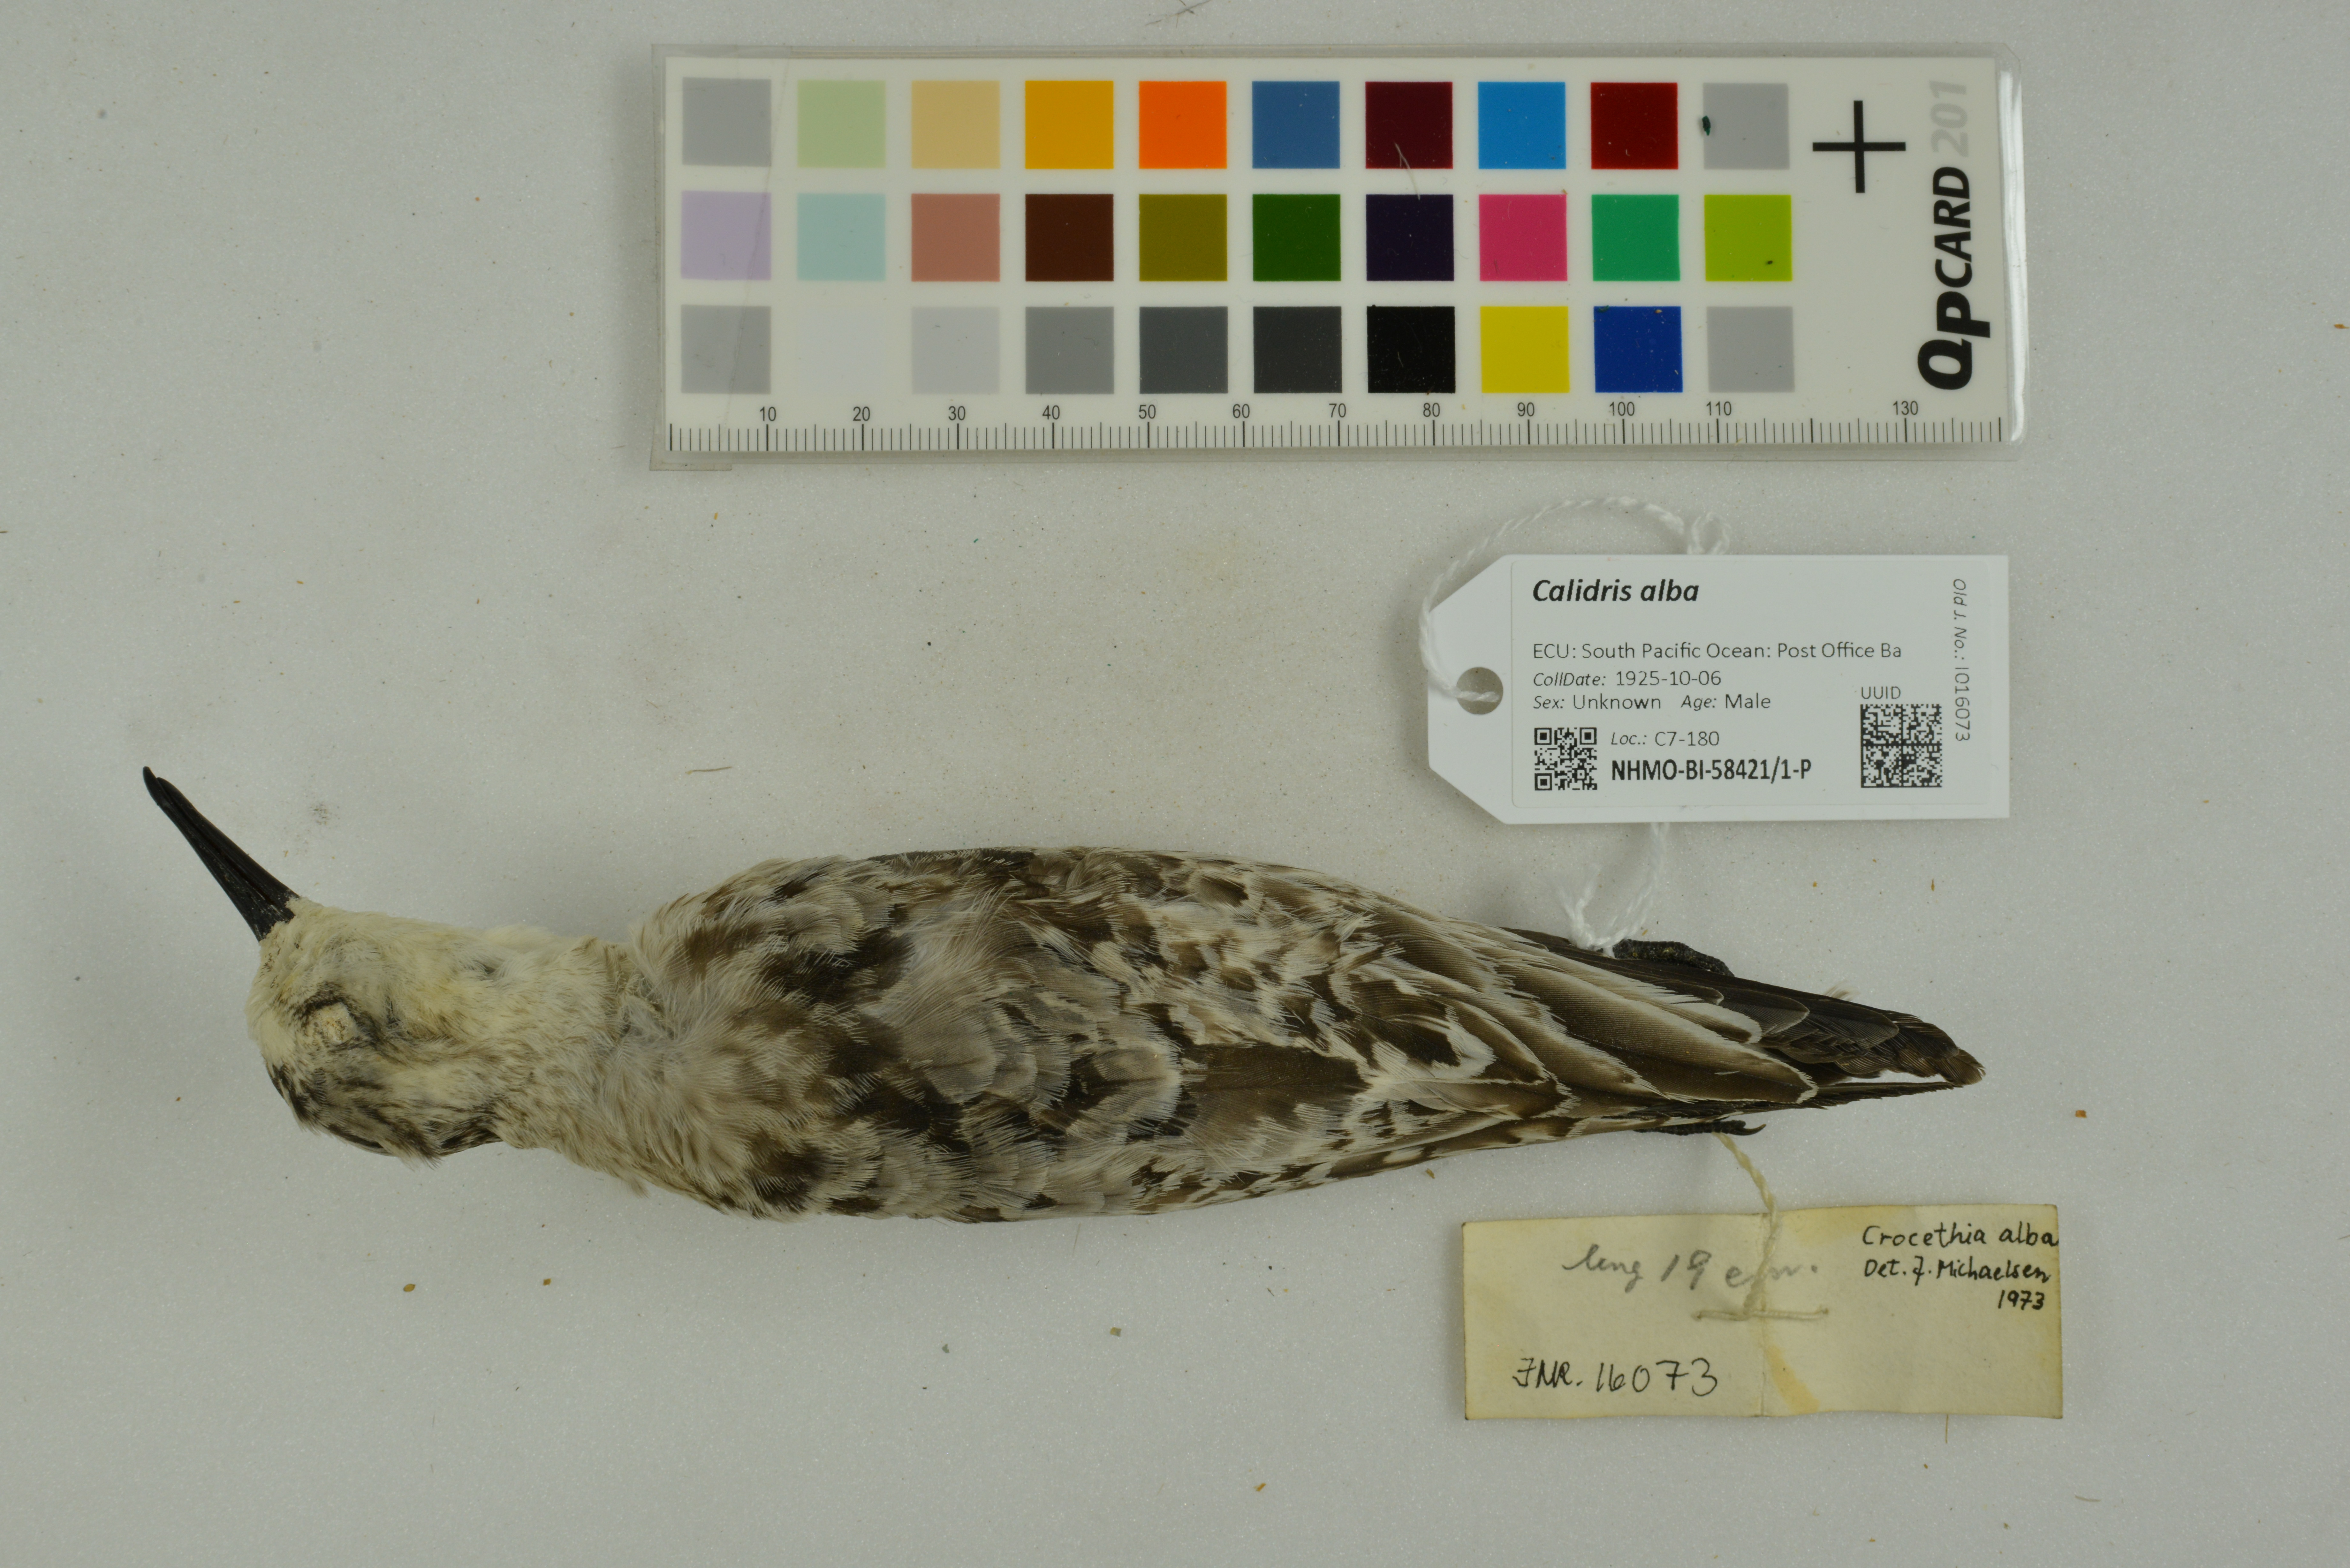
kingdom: Animalia
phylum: Chordata
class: Aves
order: Charadriiformes
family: Scolopacidae
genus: Calidris
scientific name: Calidris alba
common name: Sanderling
